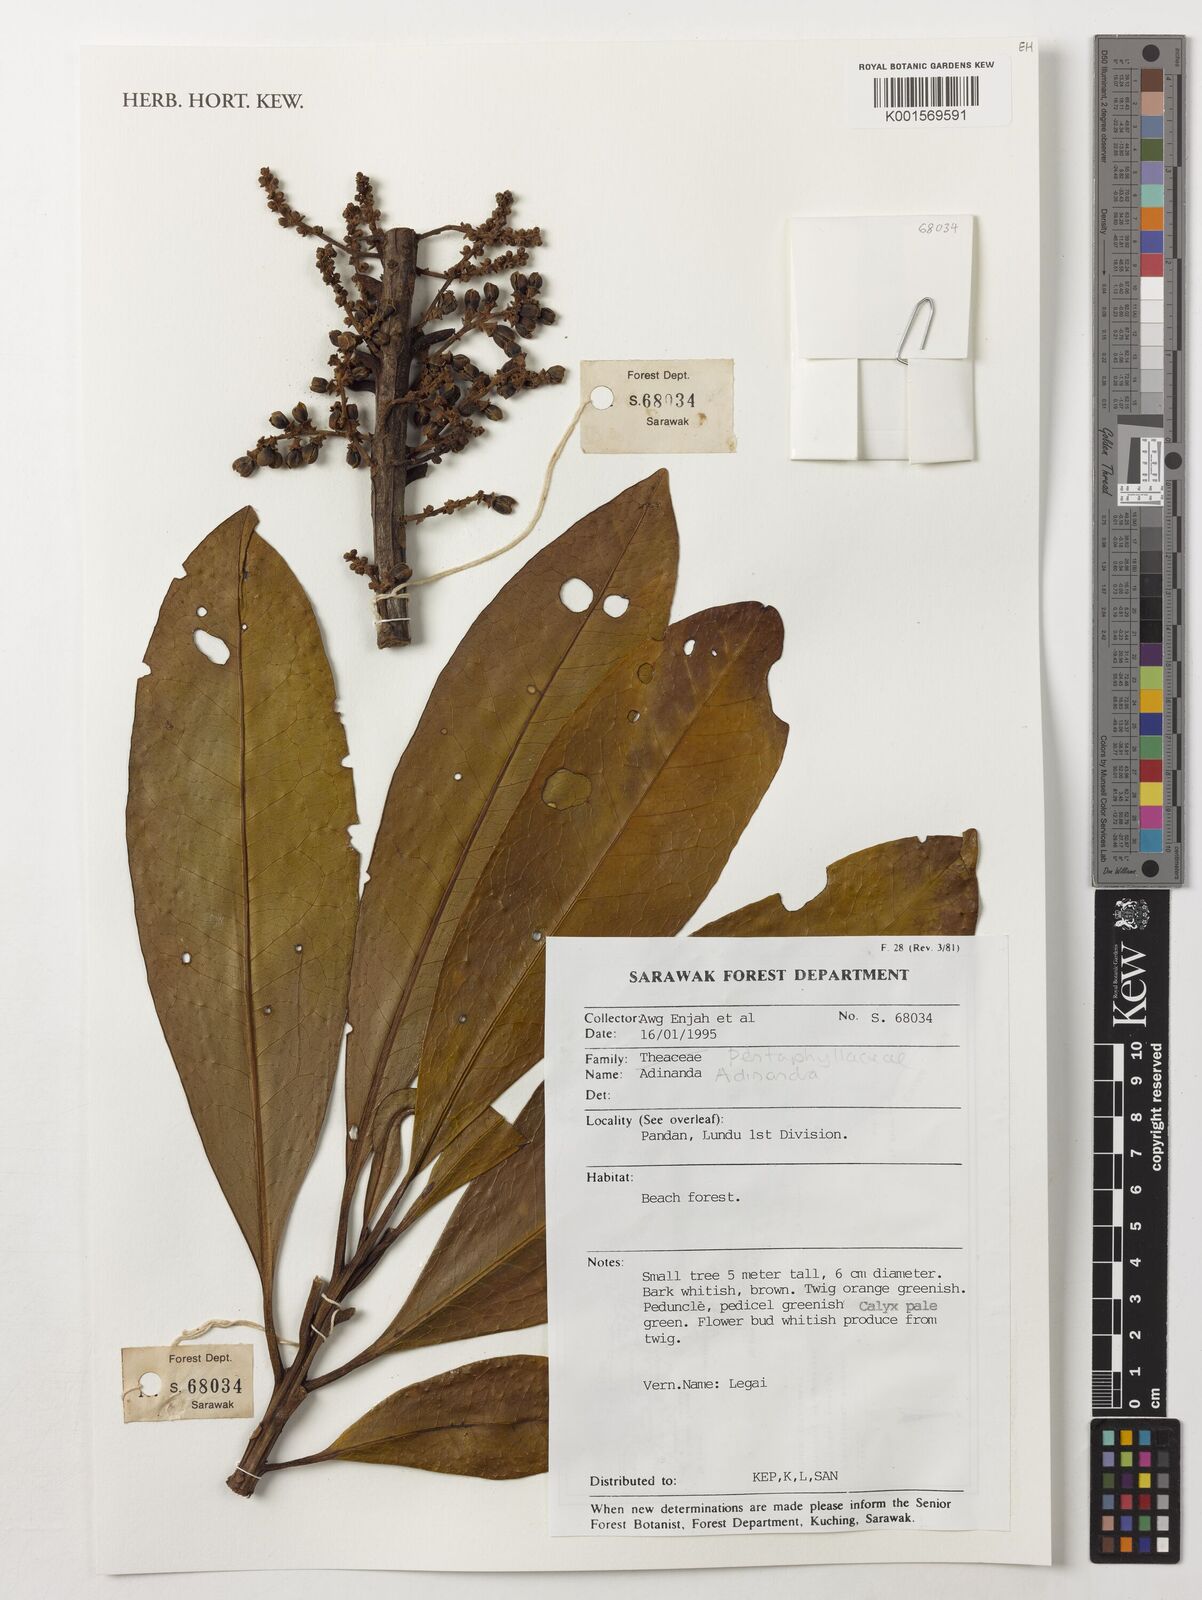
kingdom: Plantae
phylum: Tracheophyta
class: Magnoliopsida
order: Ericales
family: Pentaphylacaceae
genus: Adinandra
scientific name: Adinandra
